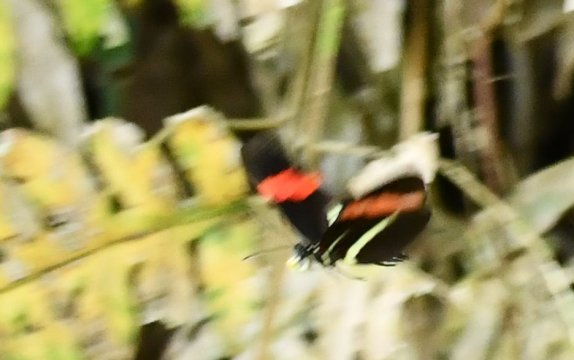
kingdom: Animalia
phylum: Arthropoda
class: Insecta
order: Lepidoptera
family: Nymphalidae
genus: Heliconius
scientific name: Heliconius erato
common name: Erato Heliconian
